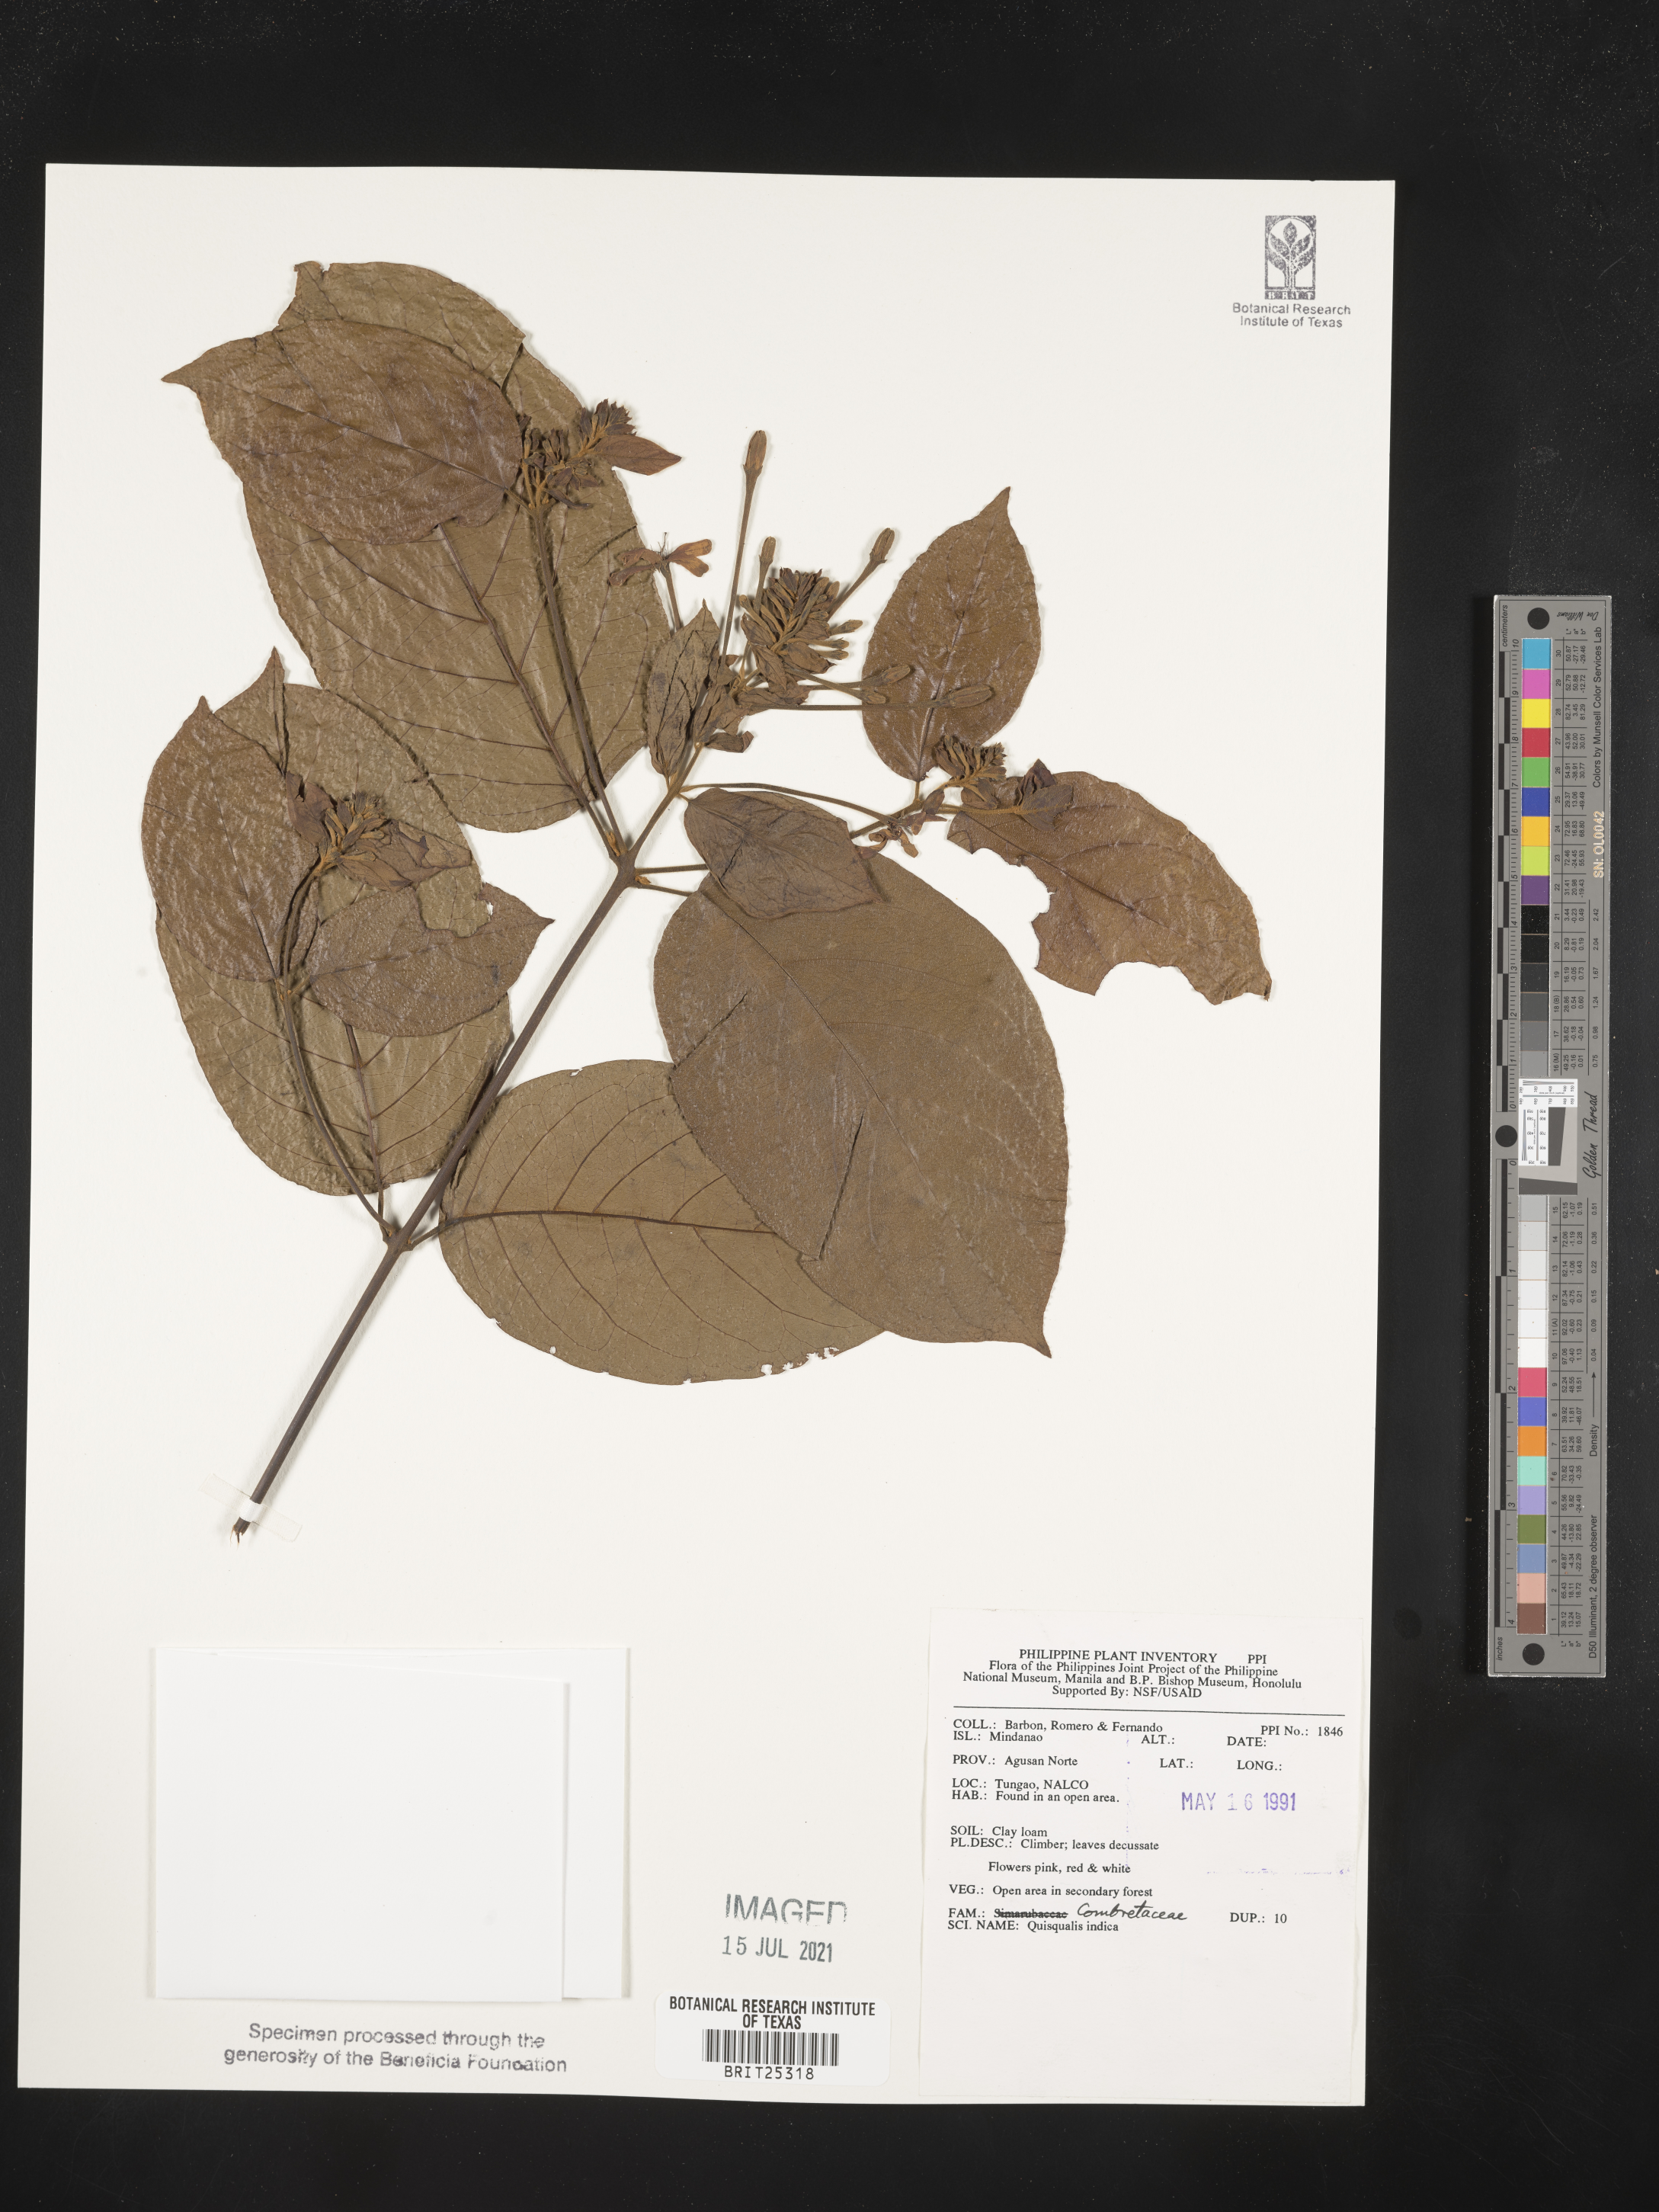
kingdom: Plantae
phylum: Tracheophyta
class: Magnoliopsida
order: Myrtales
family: Combretaceae
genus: Combretum
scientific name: Combretum indicum
